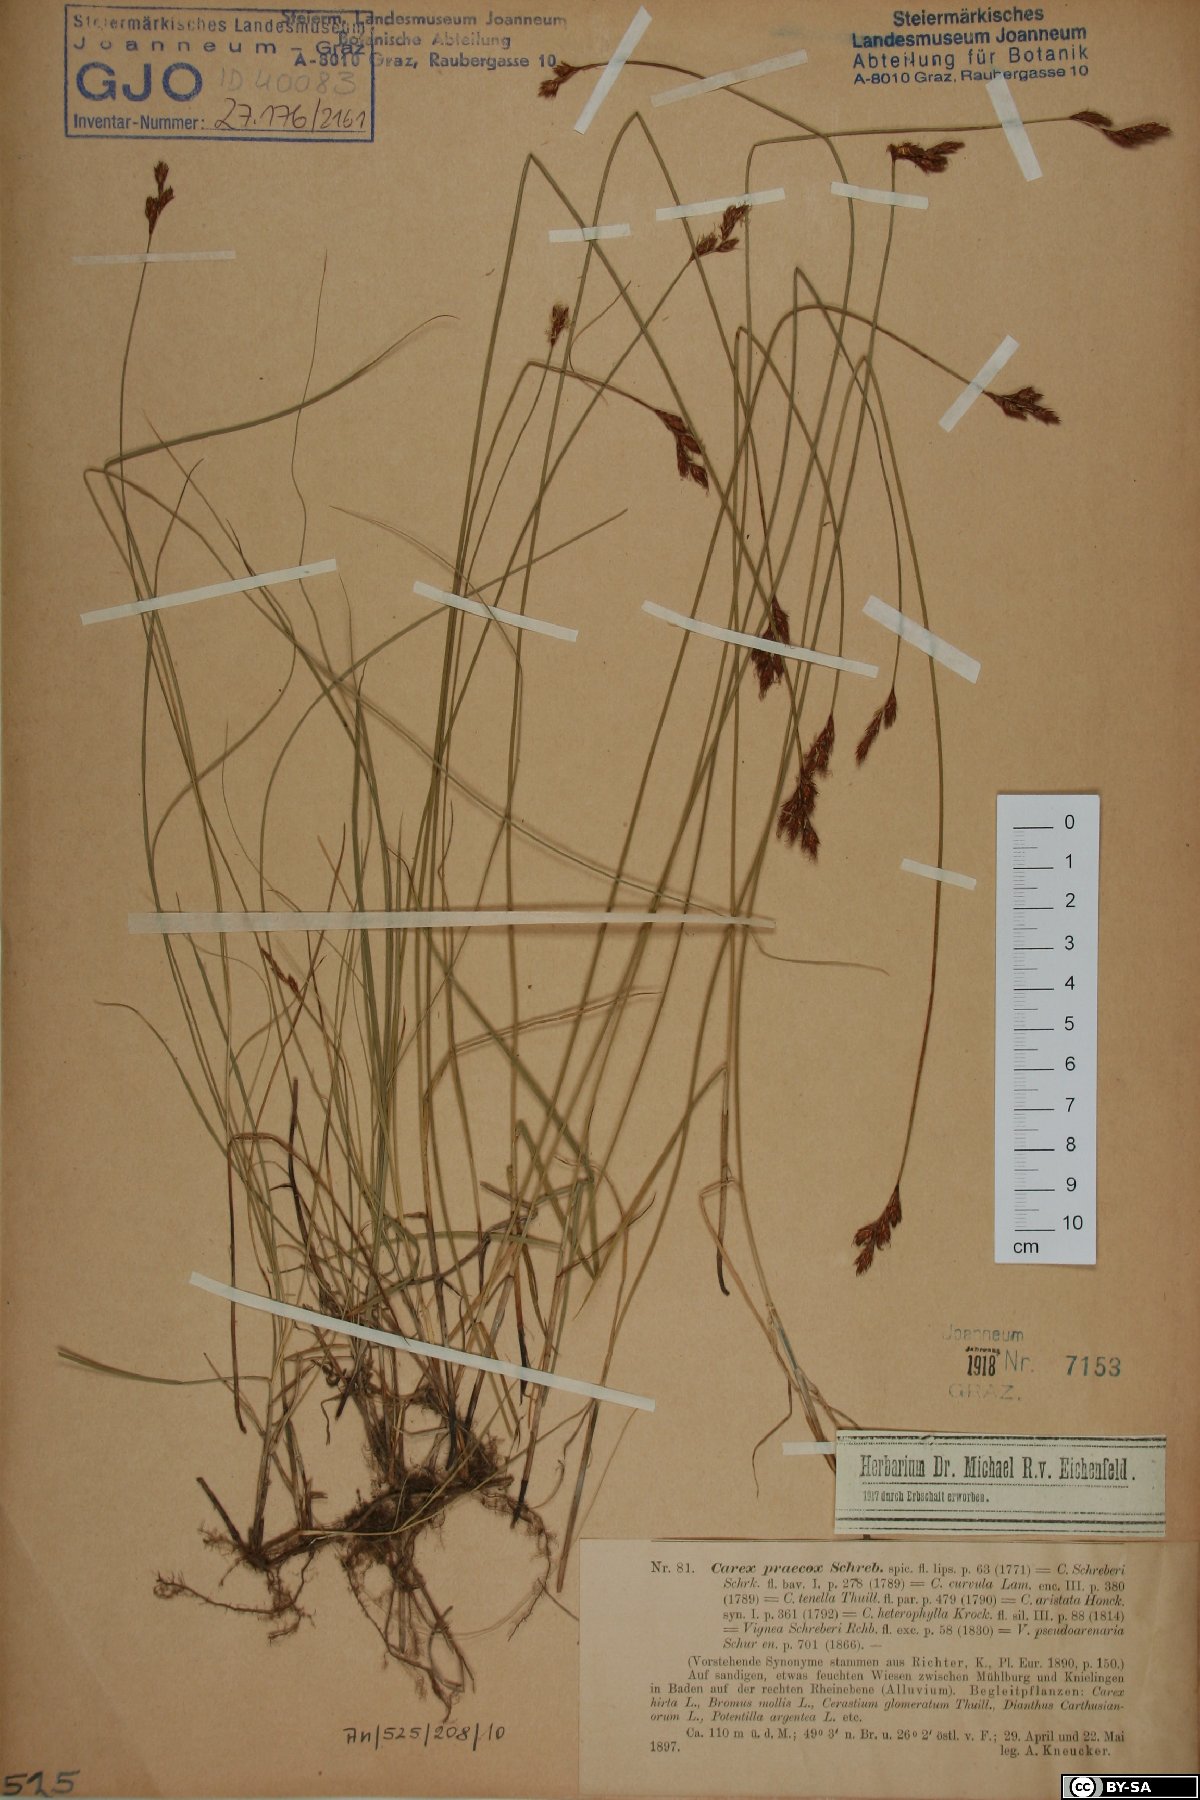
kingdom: Plantae
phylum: Tracheophyta
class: Liliopsida
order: Poales
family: Cyperaceae
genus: Carex
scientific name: Carex praecox
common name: Early sedge
